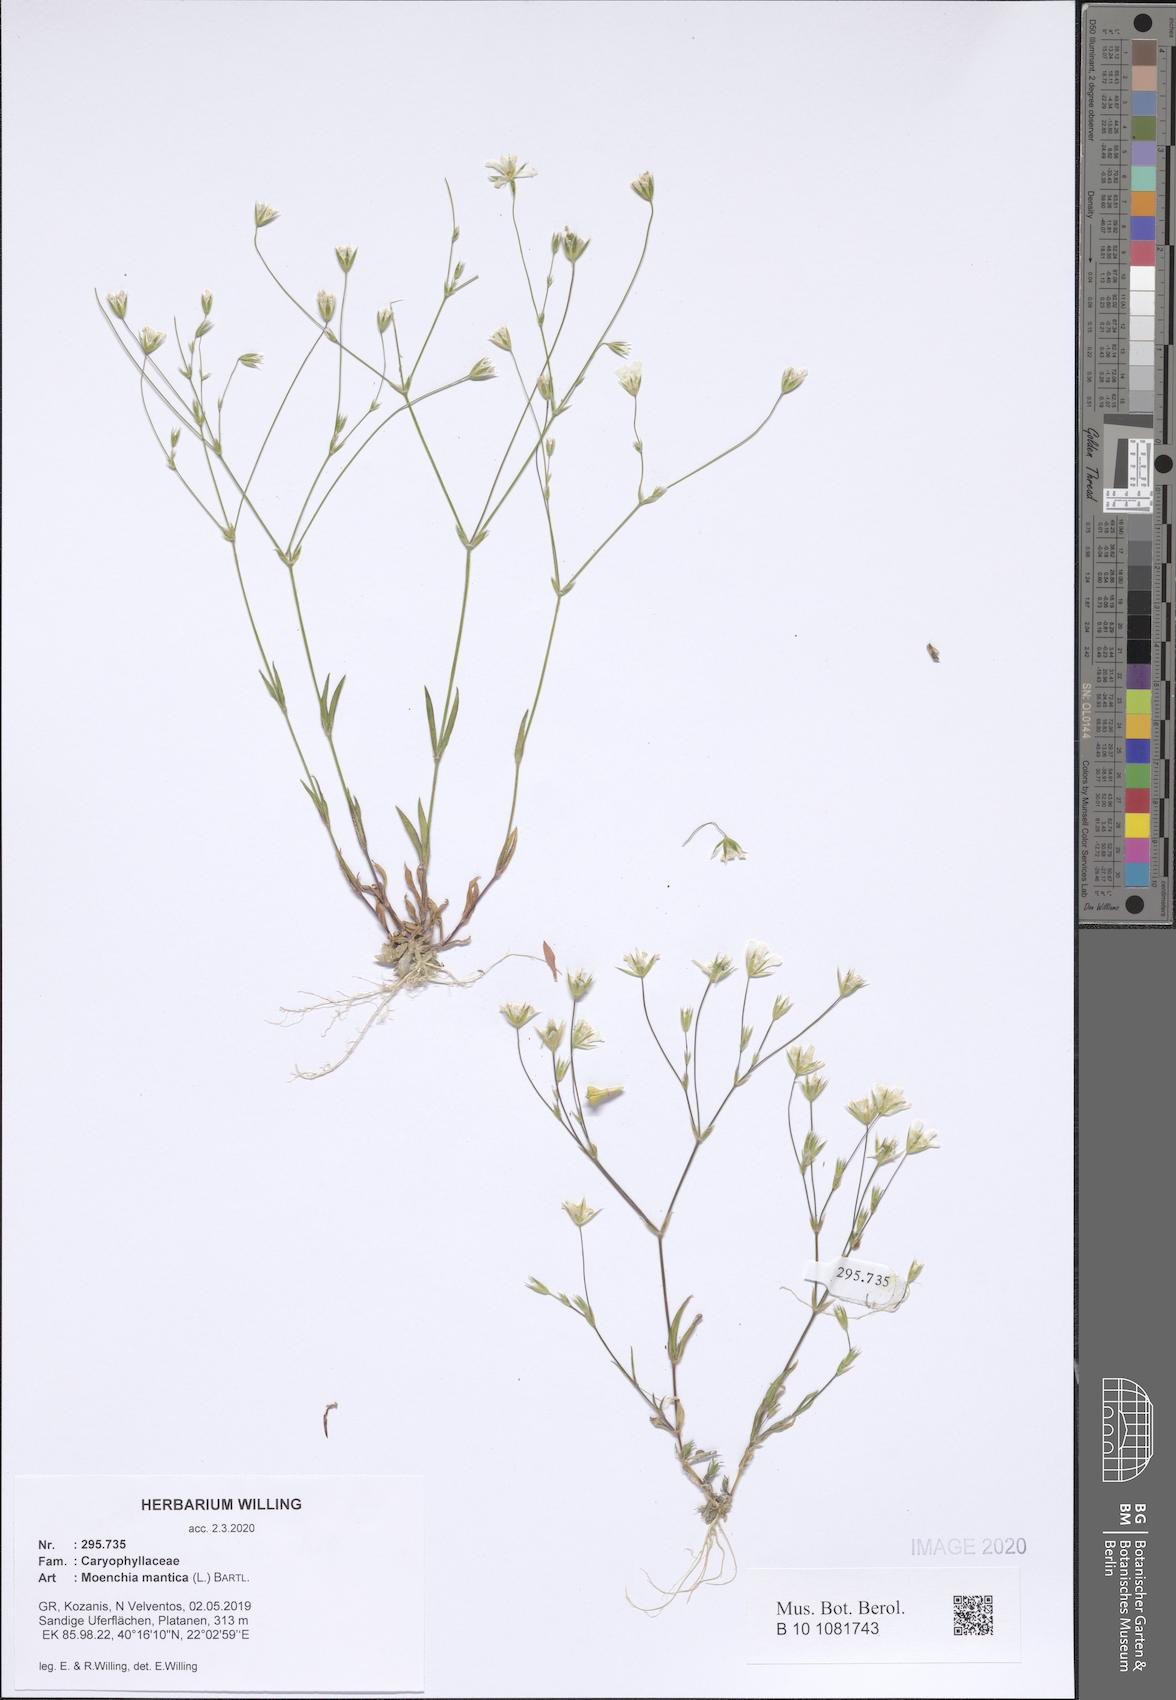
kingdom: Plantae
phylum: Tracheophyta
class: Magnoliopsida
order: Caryophyllales
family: Caryophyllaceae
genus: Moenchia
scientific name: Moenchia mantica
